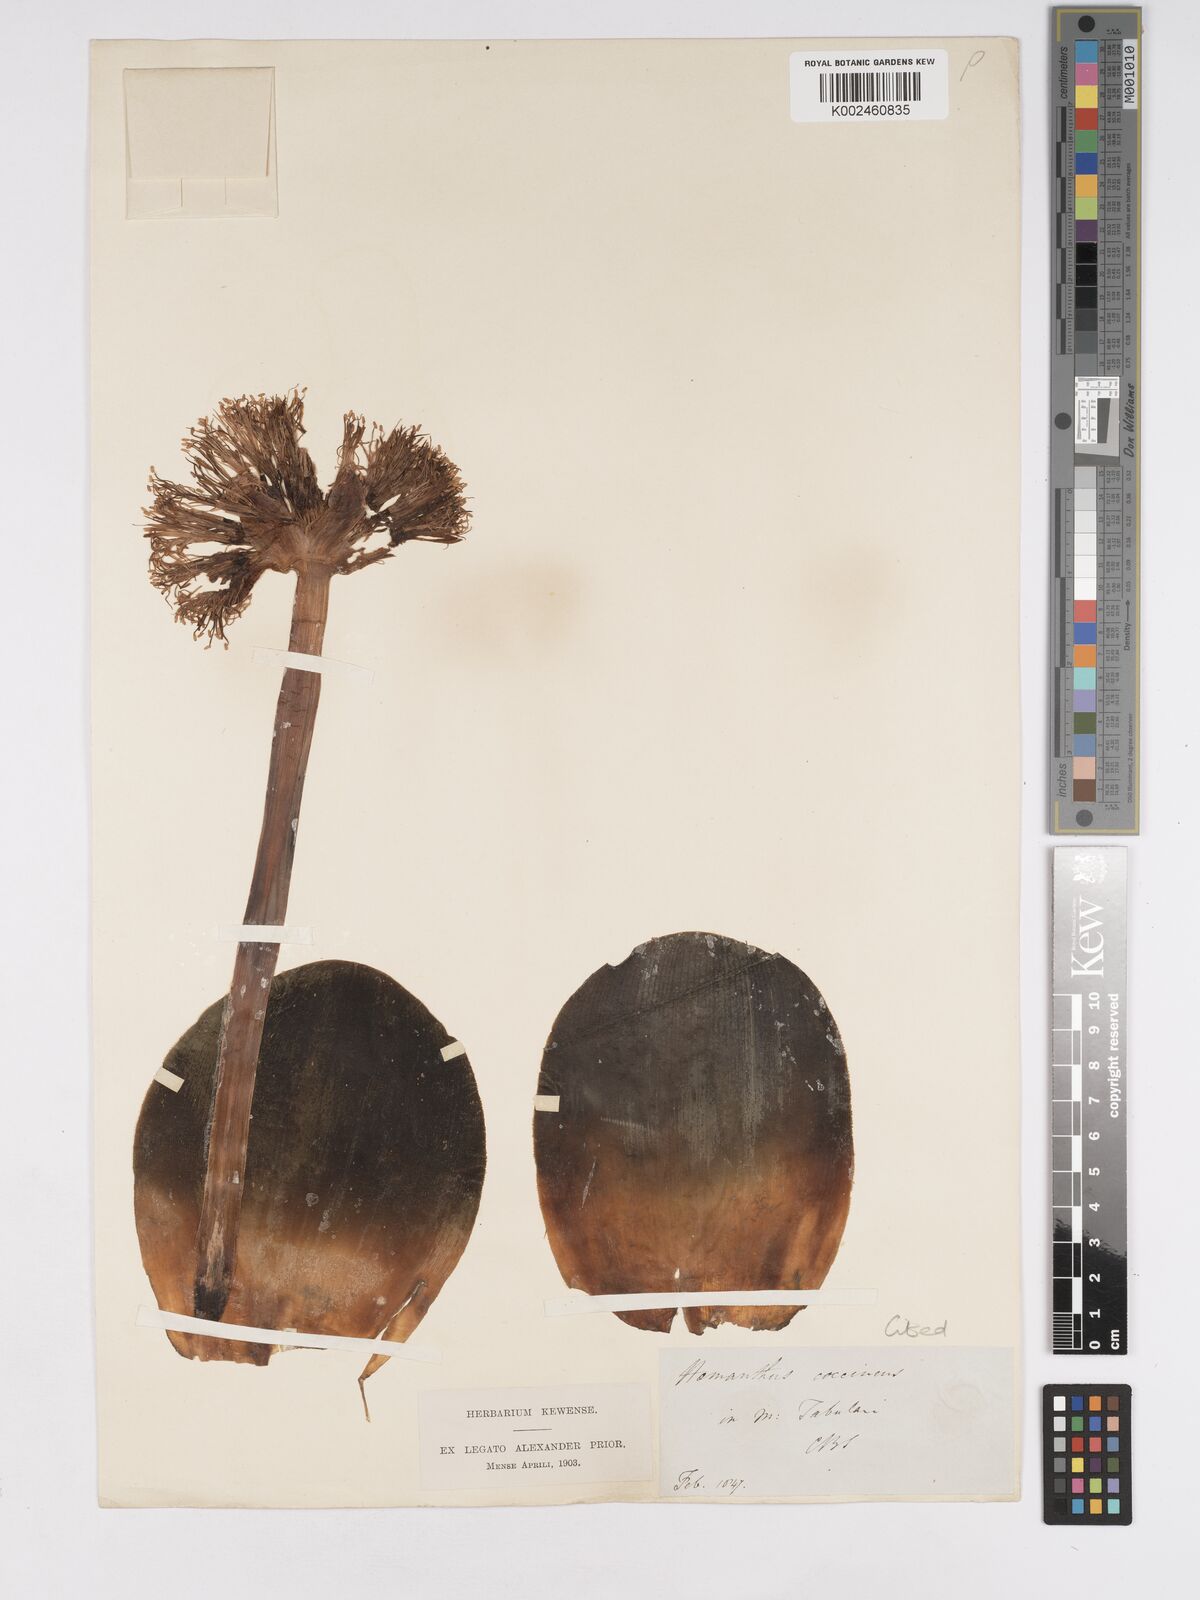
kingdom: Plantae
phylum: Tracheophyta
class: Liliopsida
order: Asparagales
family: Amaryllidaceae
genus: Haemanthus
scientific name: Haemanthus sanguineus
